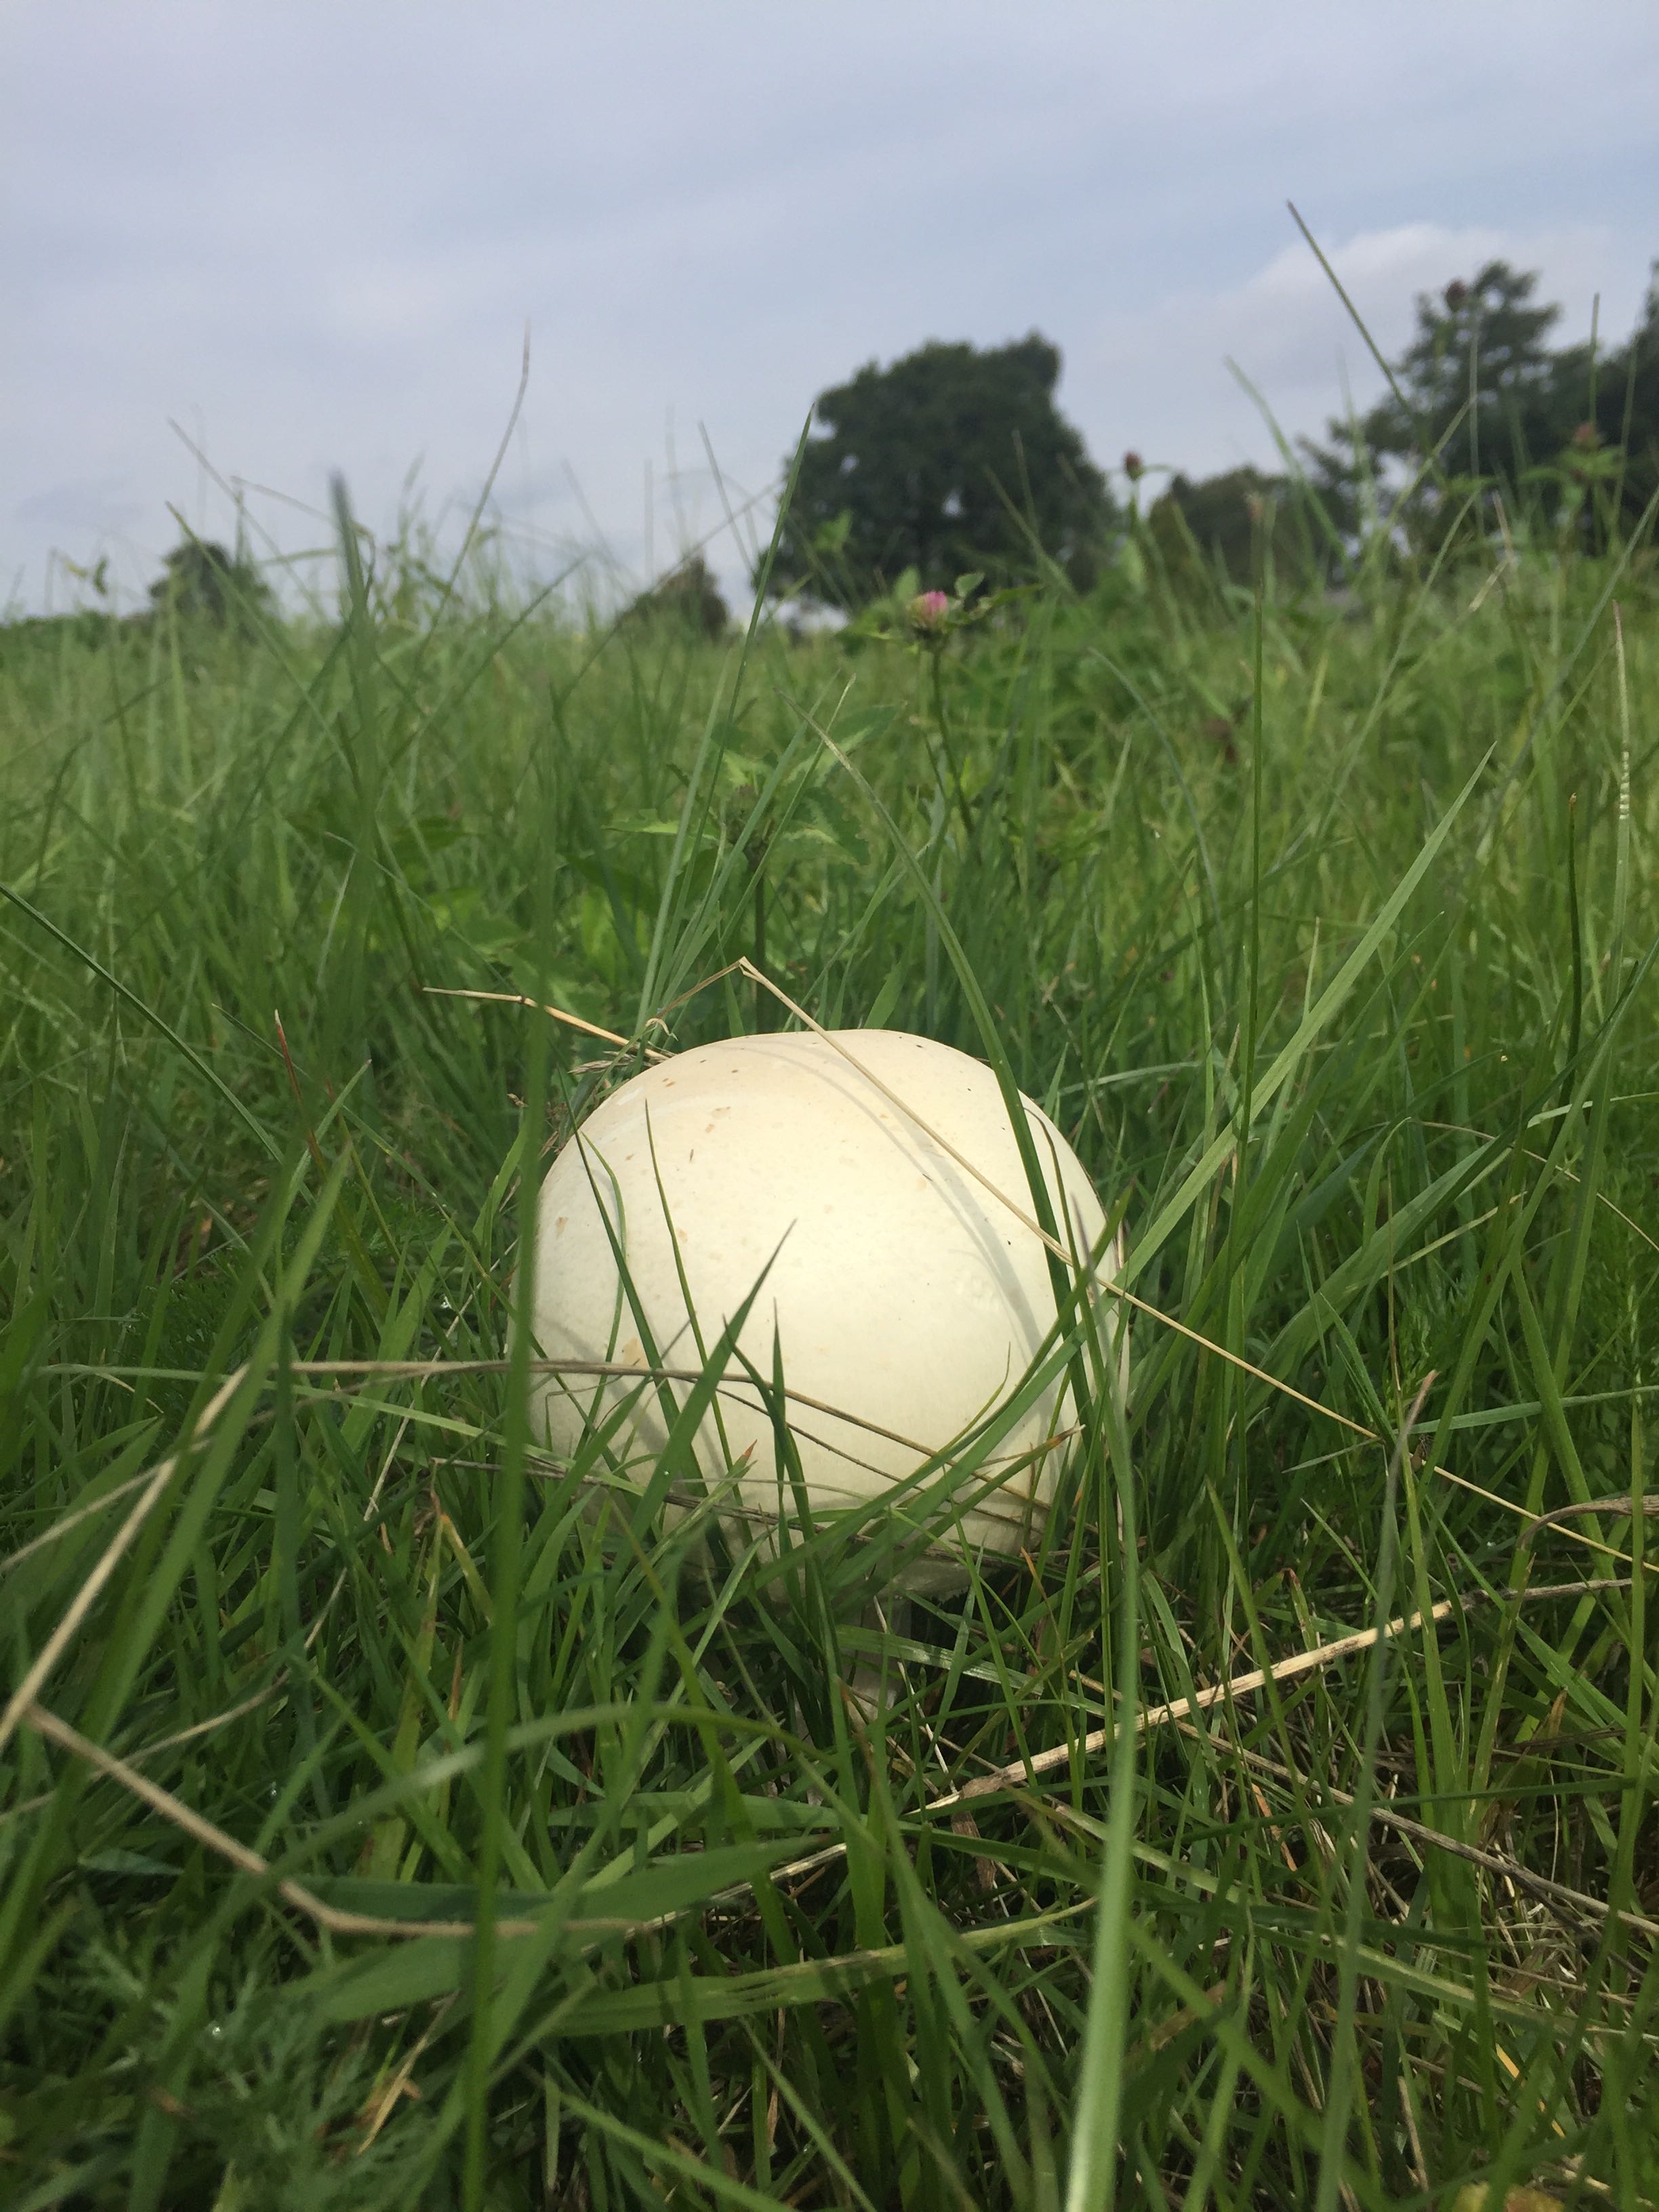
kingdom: Fungi
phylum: Basidiomycota
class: Agaricomycetes
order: Agaricales
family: Lycoperdaceae
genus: Calvatia
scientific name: Calvatia gigantea
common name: kæmpestøvbold
